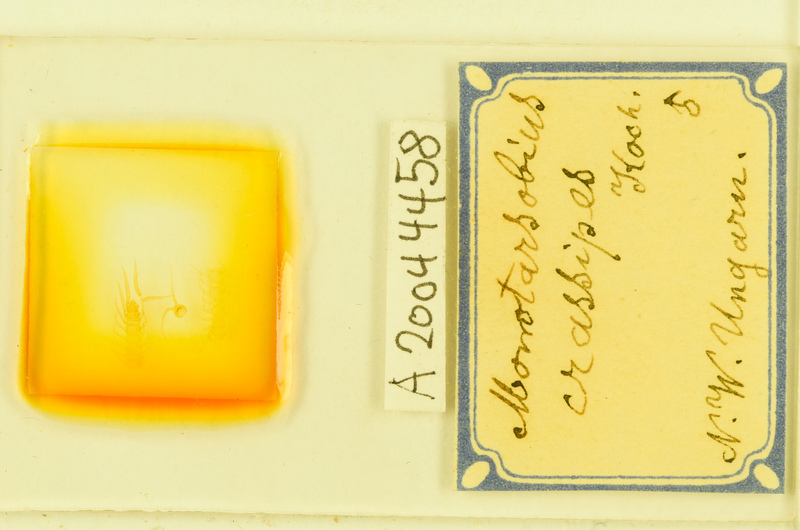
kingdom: Animalia
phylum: Arthropoda
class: Chilopoda
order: Lithobiomorpha
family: Lithobiidae
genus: Lithobius
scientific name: Lithobius crassipes
